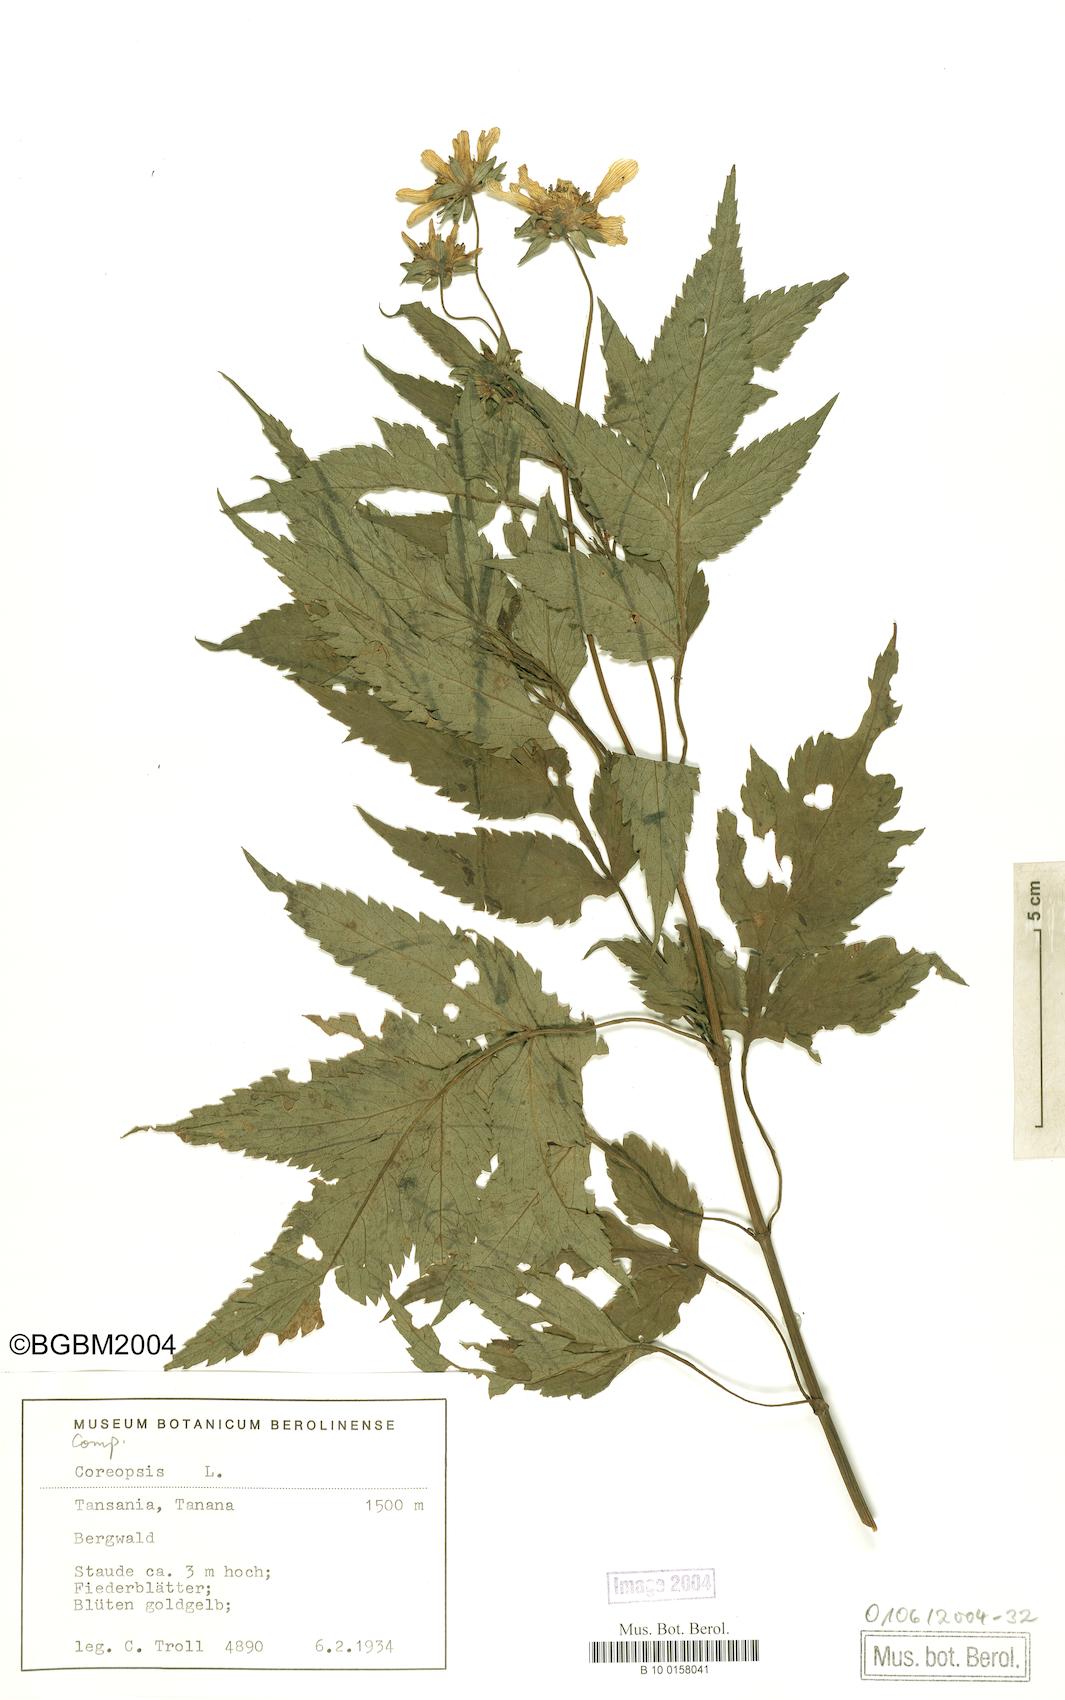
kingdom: Plantae
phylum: Tracheophyta
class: Magnoliopsida
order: Asterales
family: Asteraceae
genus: Coreopsis
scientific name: Coreopsis
